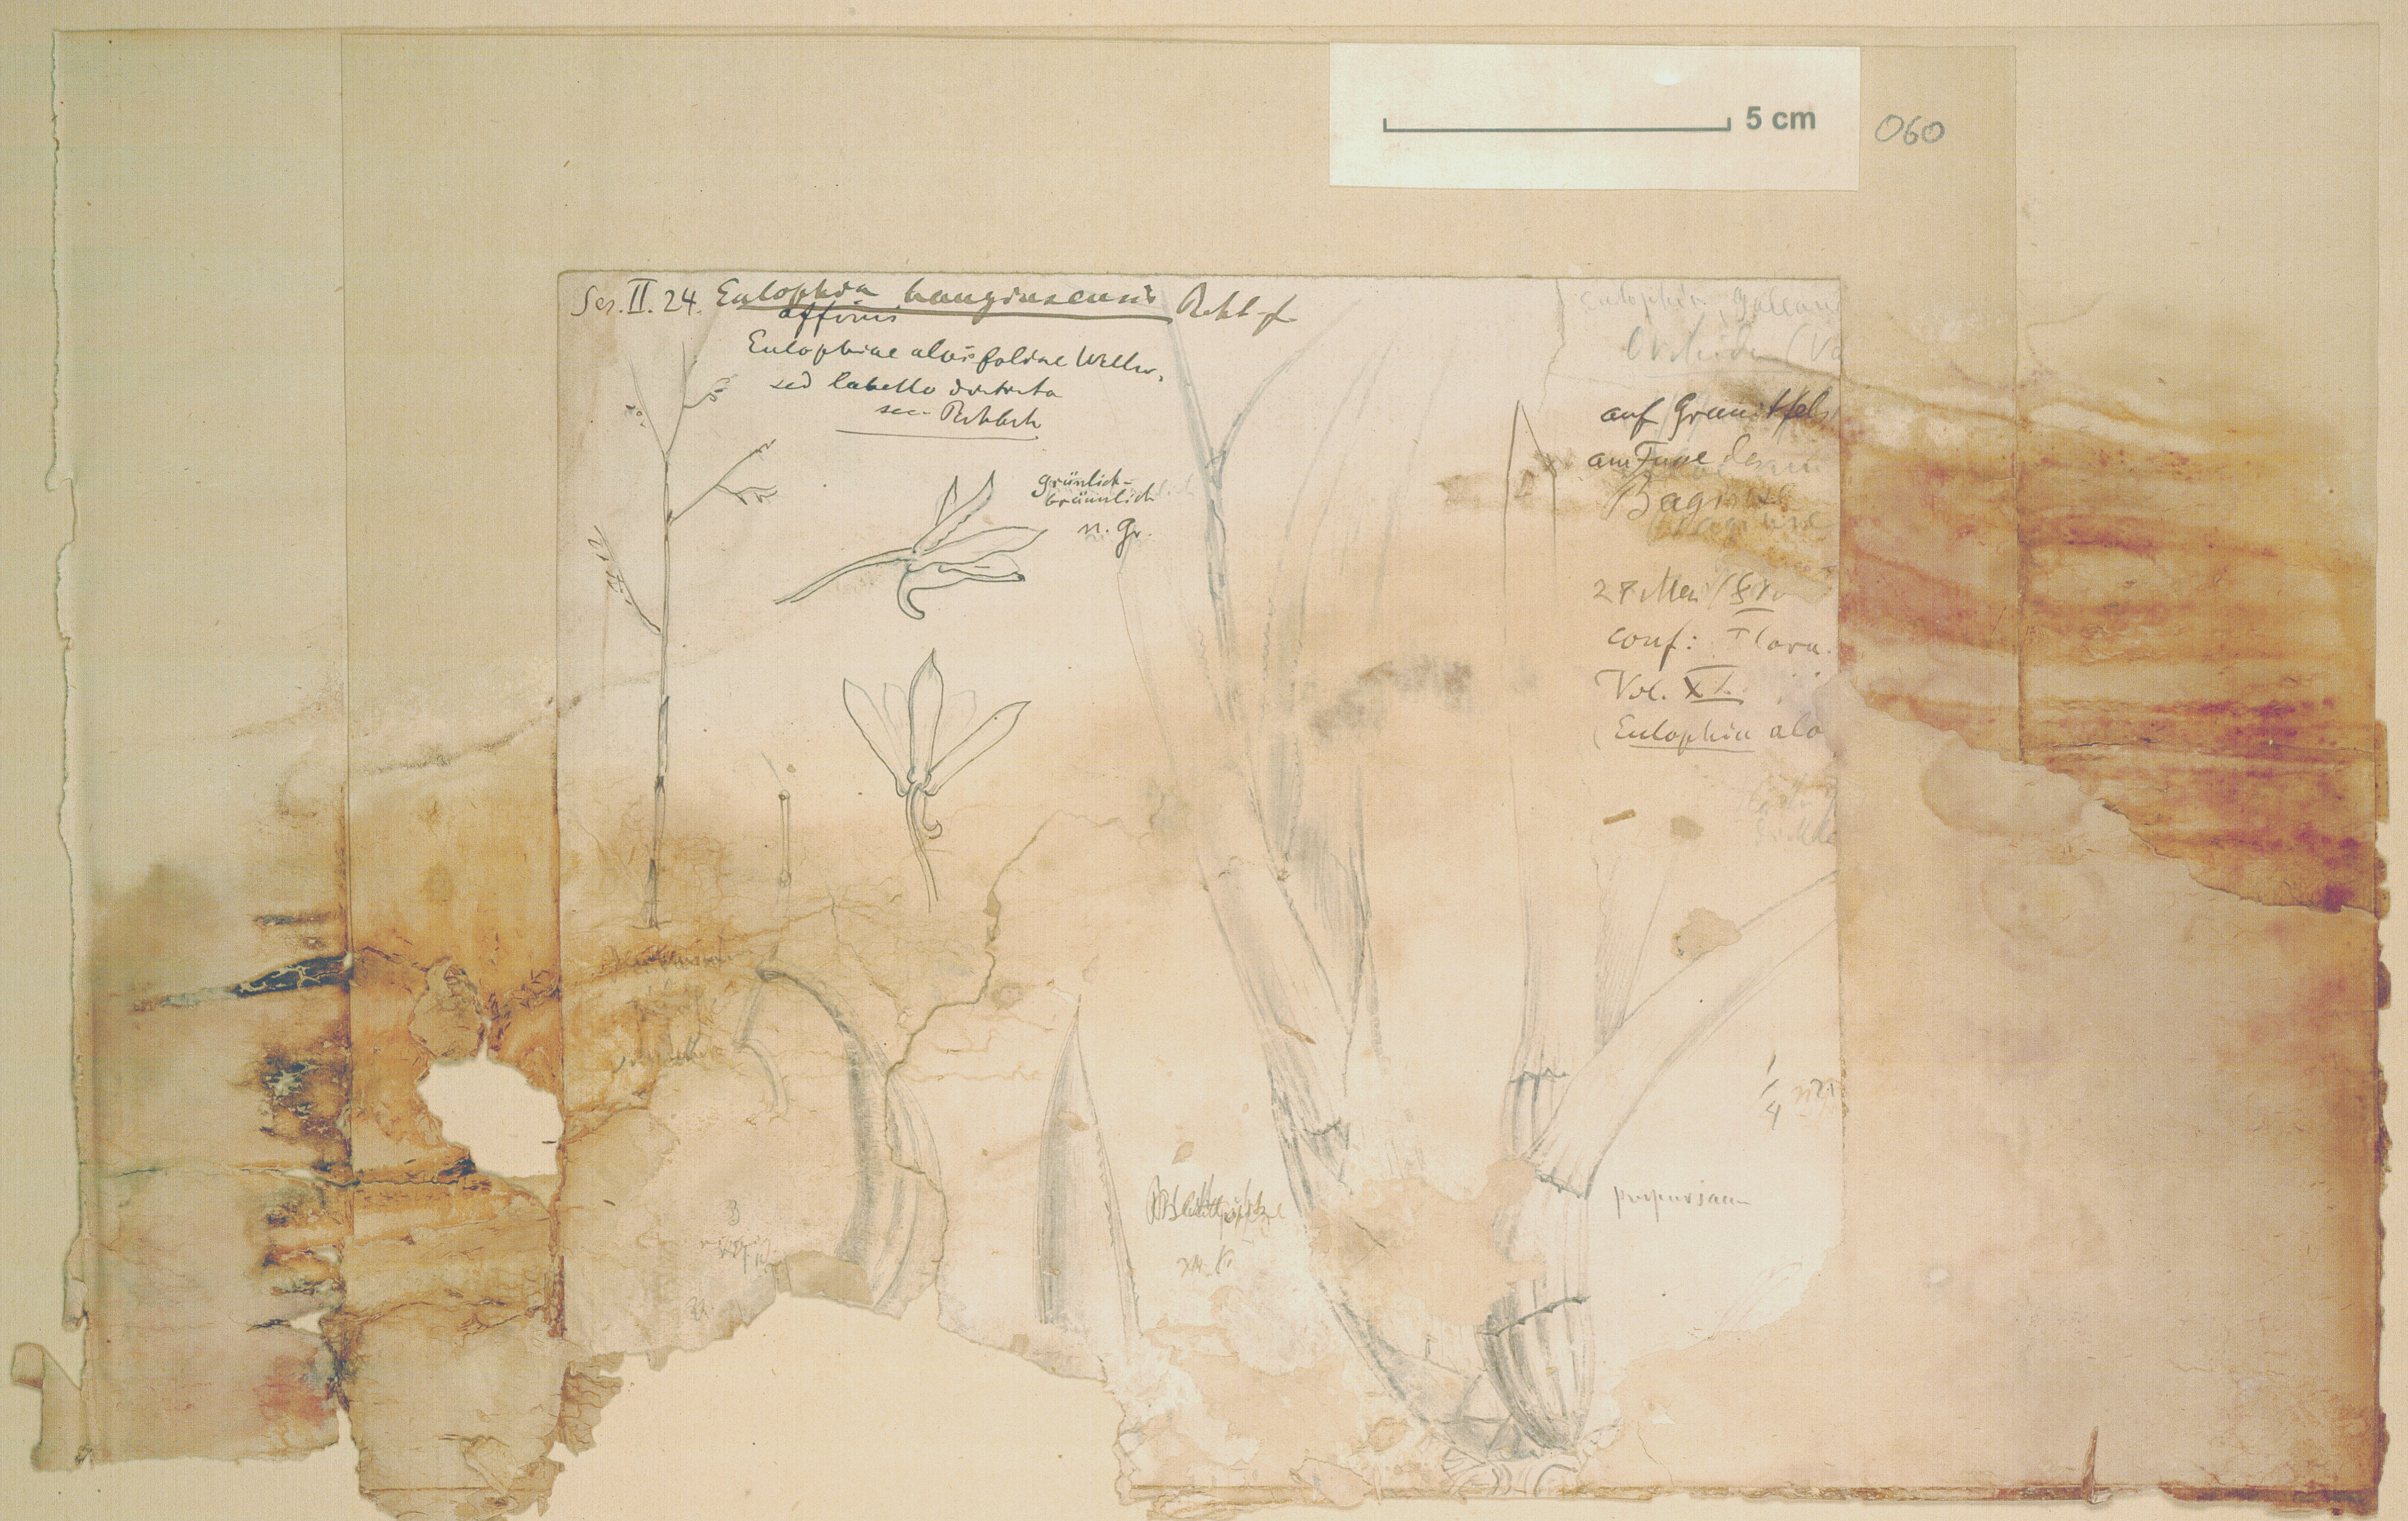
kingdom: Plantae
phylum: Tracheophyta
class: Liliopsida
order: Asparagales
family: Orchidaceae
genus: Eulophia
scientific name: Eulophia petersii
